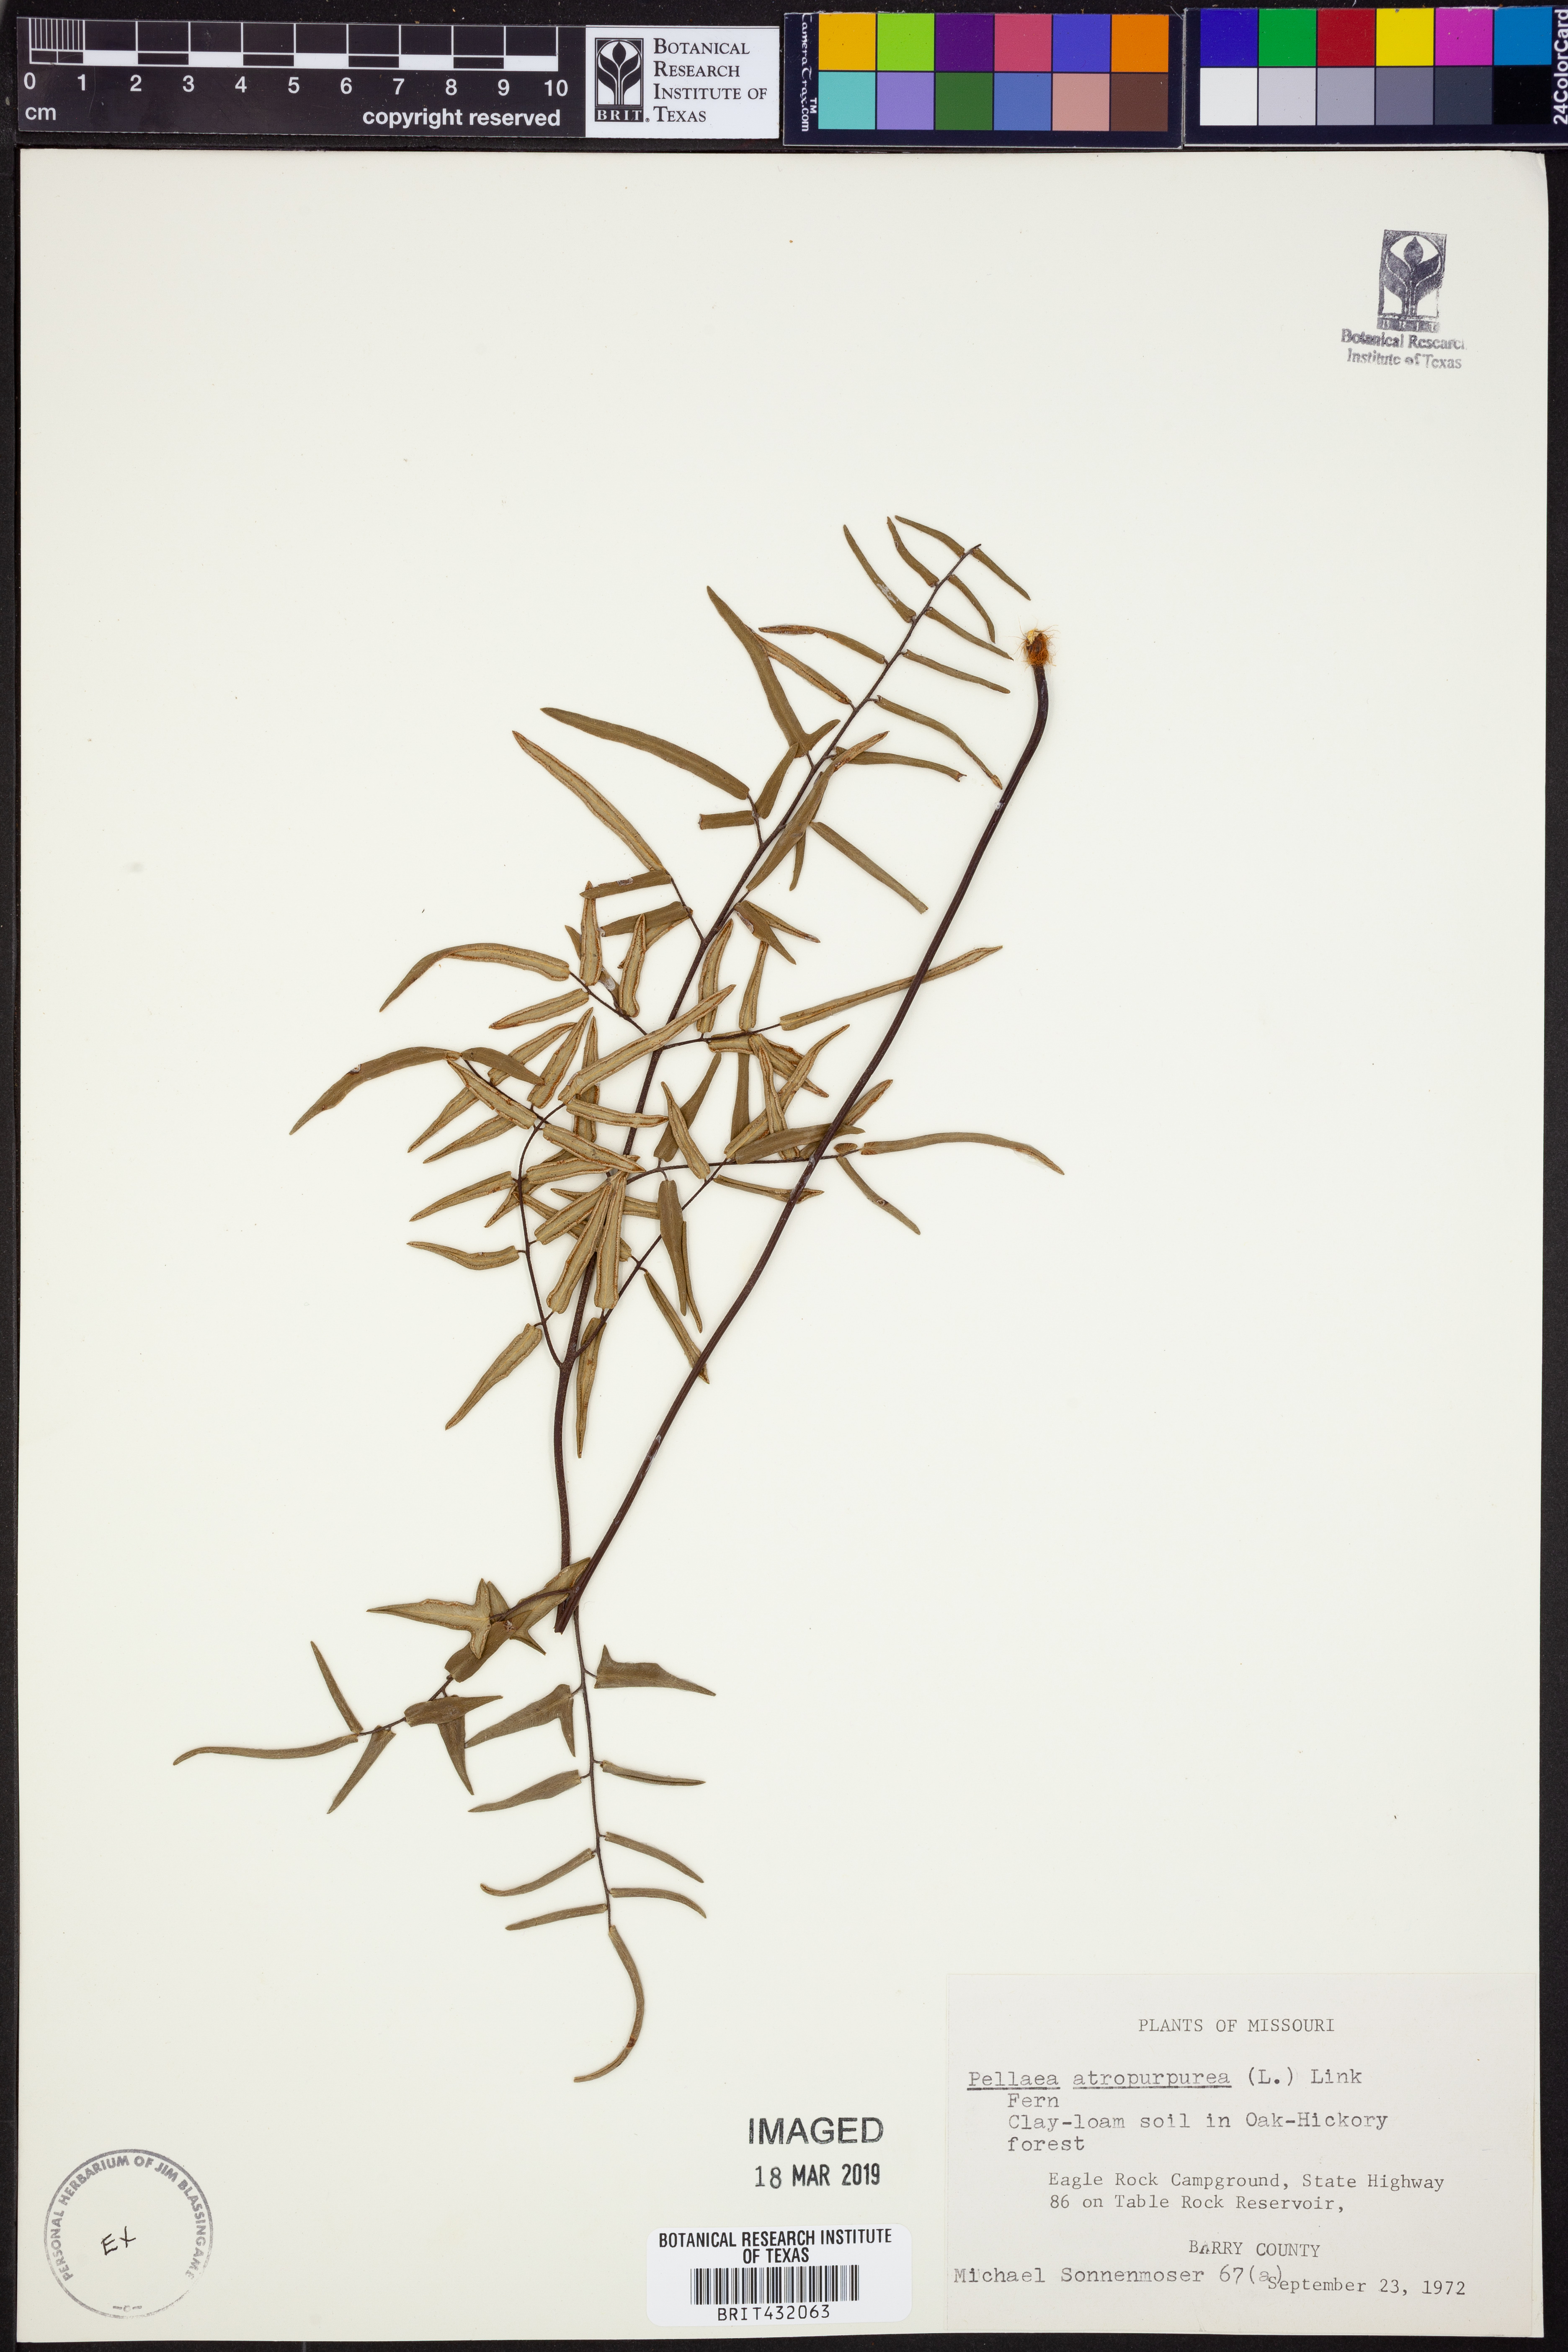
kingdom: Plantae
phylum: Tracheophyta
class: Polypodiopsida
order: Polypodiales
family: Pteridaceae
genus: Pellaea
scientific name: Pellaea atropurpurea
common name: Hairy cliffbrake
